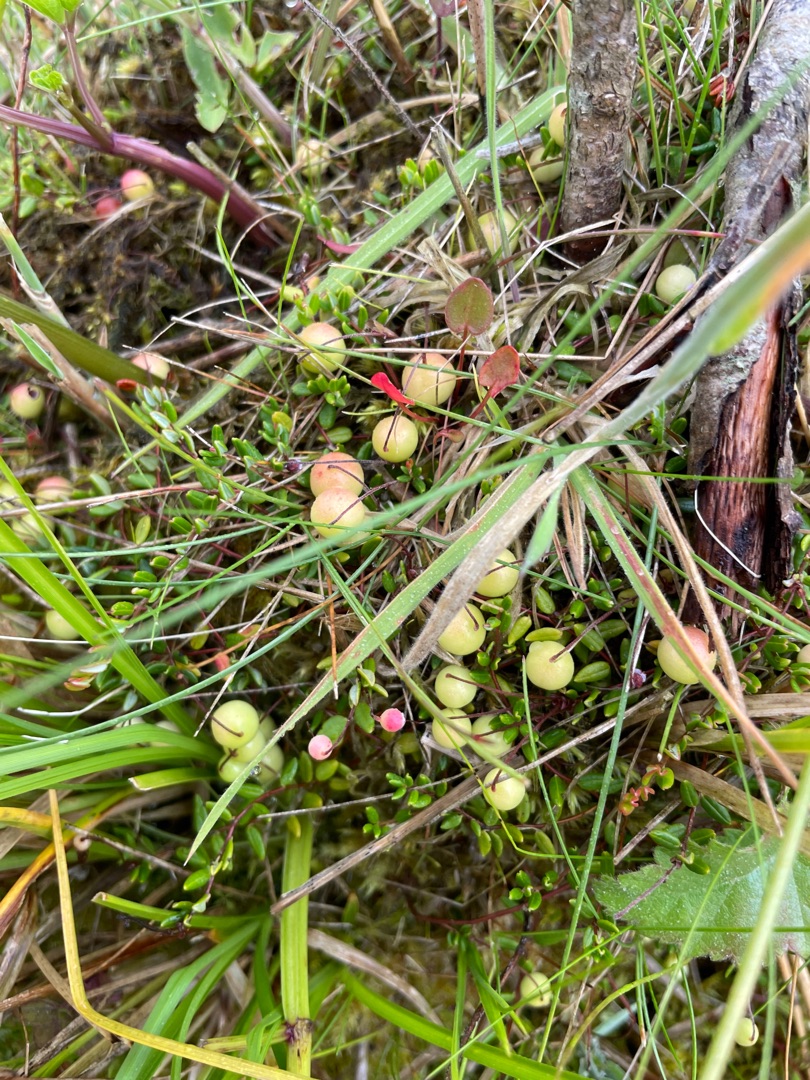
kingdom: Plantae
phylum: Tracheophyta
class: Magnoliopsida
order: Ericales
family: Ericaceae
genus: Vaccinium
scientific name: Vaccinium oxycoccos
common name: Tranebær
